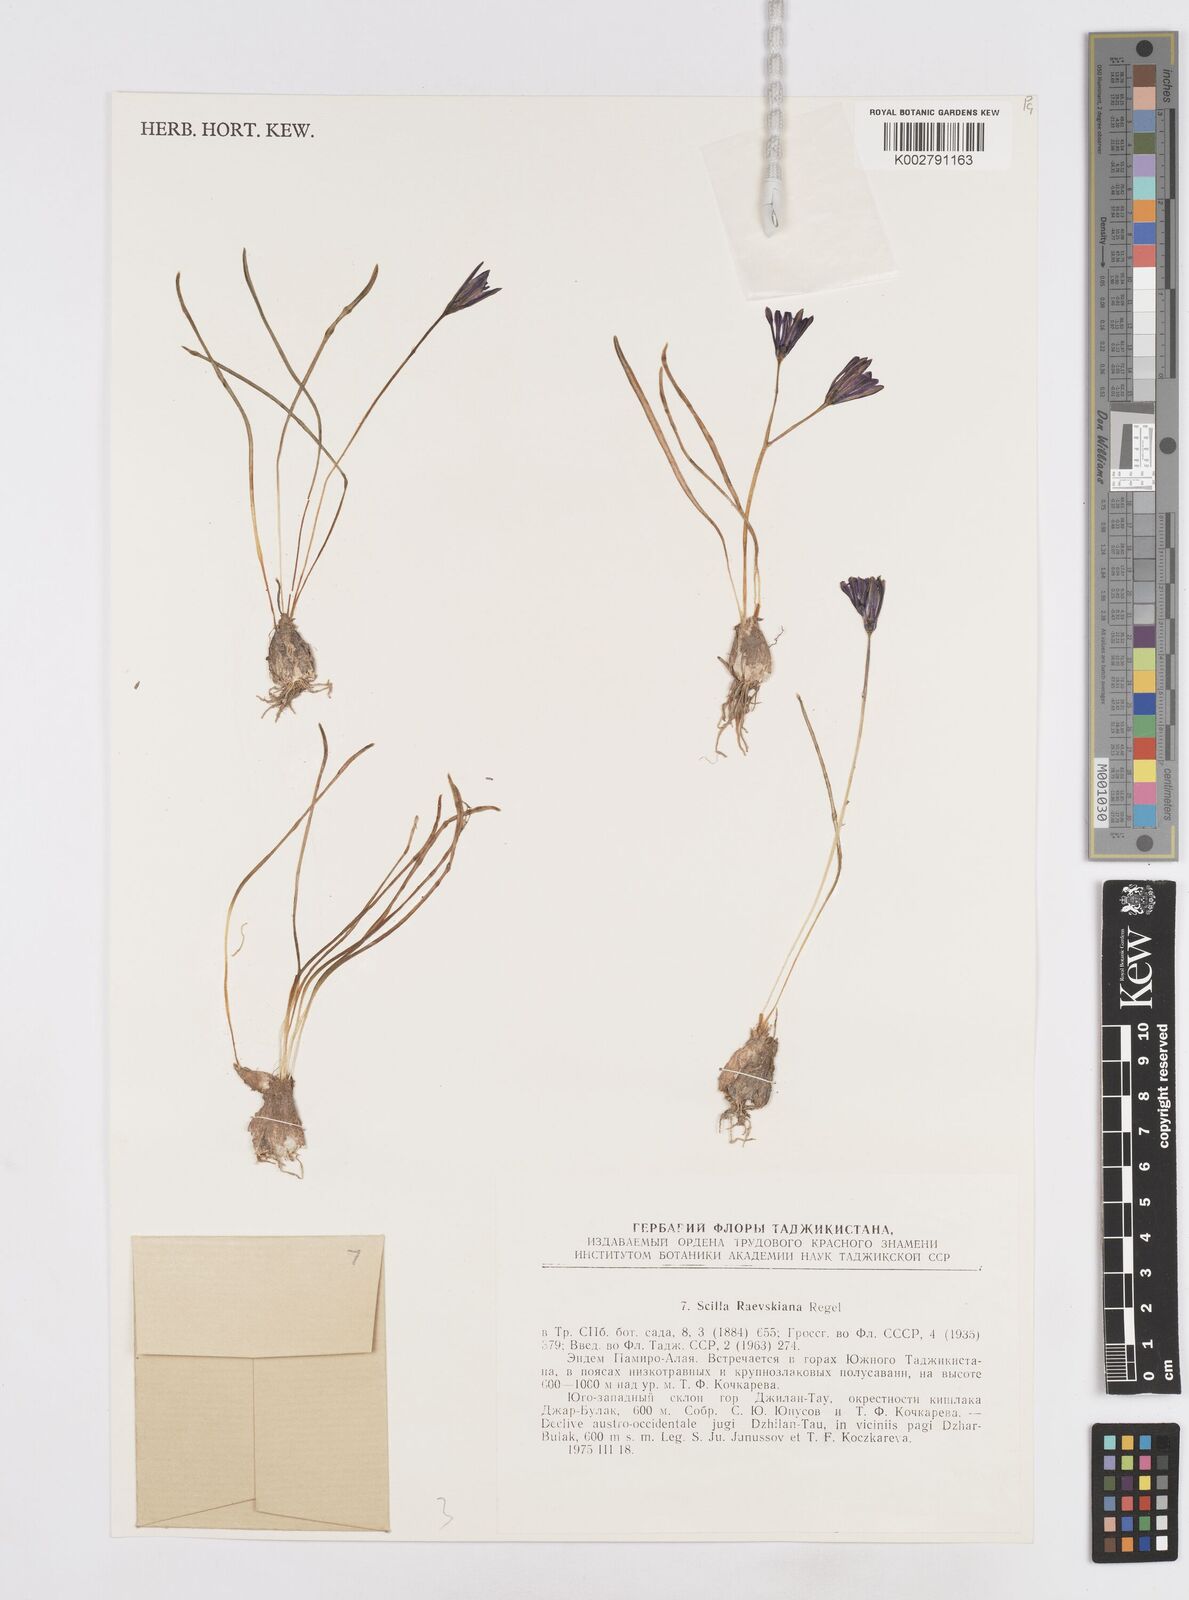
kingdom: Plantae
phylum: Tracheophyta
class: Liliopsida
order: Asparagales
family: Asparagaceae
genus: Fessia
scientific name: Fessia raewskiana
